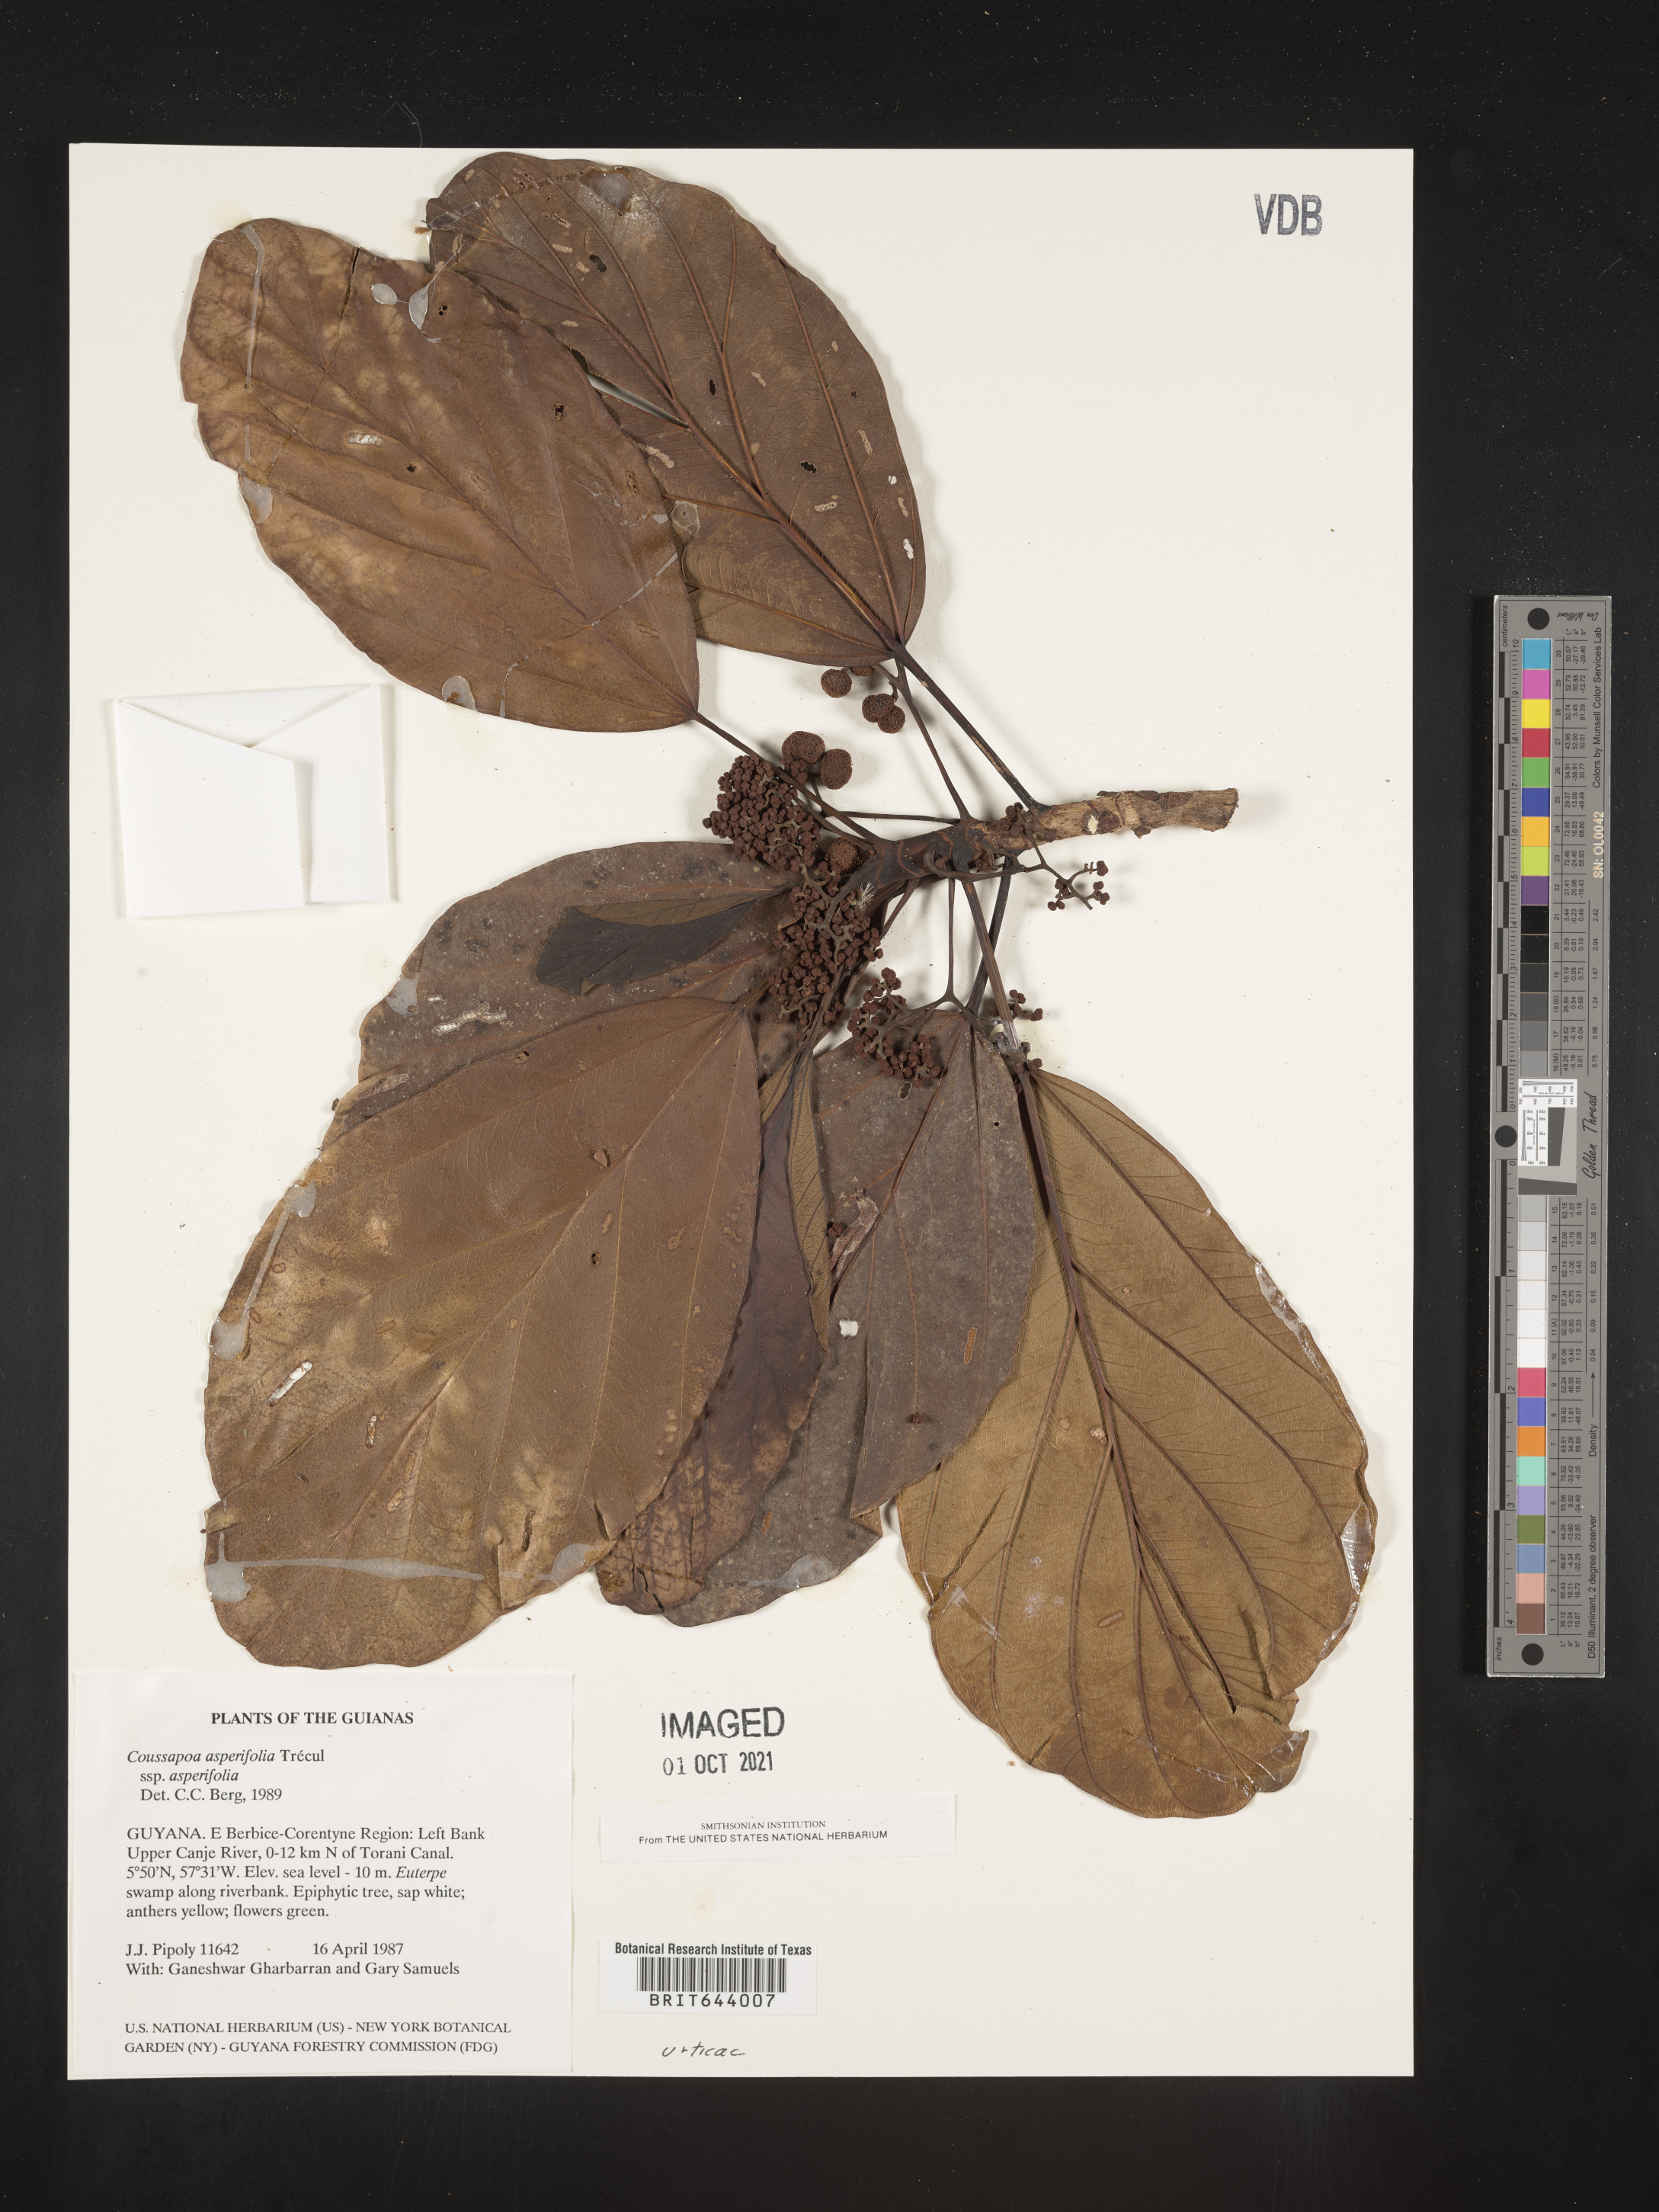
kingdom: Plantae
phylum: Tracheophyta
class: Magnoliopsida
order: Rosales
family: Urticaceae
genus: Boehmeria
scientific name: Boehmeria
